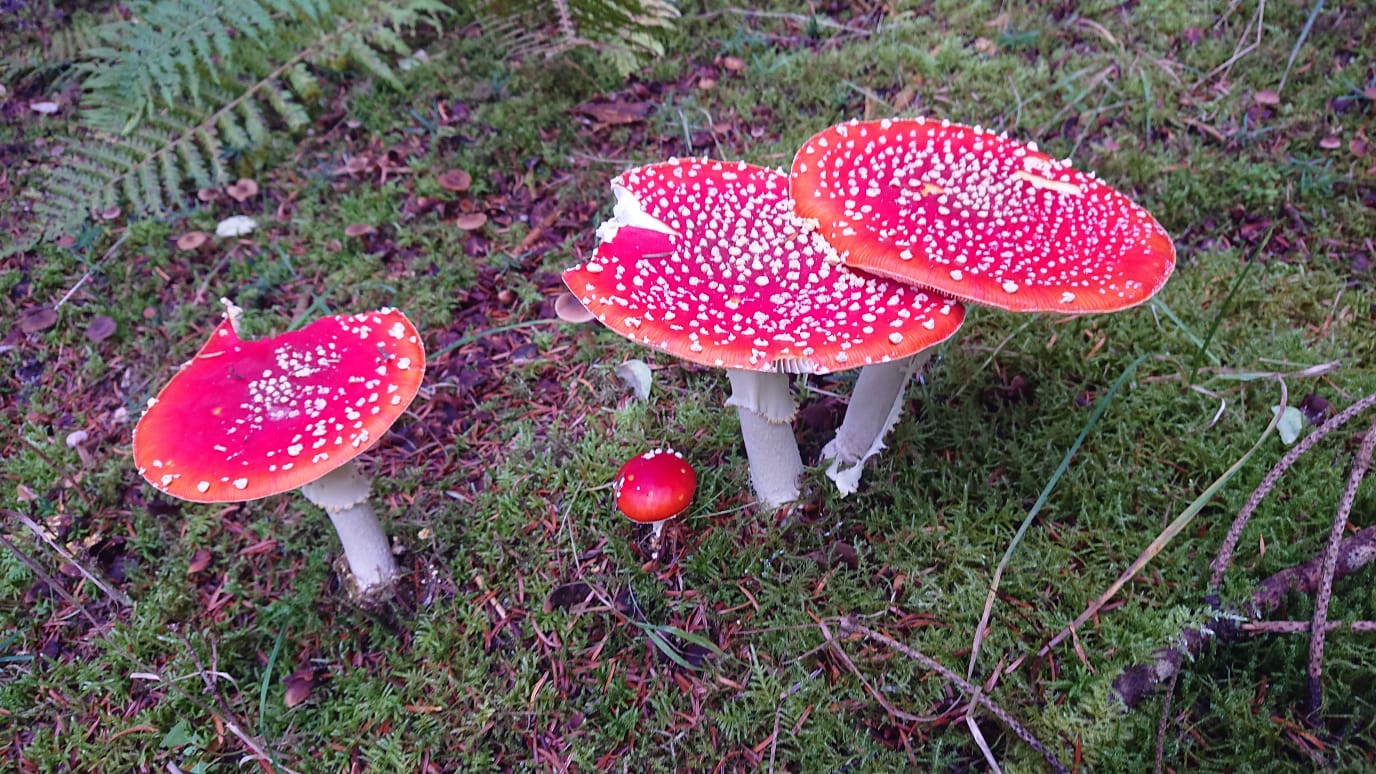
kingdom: Fungi
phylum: Basidiomycota
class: Agaricomycetes
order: Agaricales
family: Amanitaceae
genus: Amanita
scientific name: Amanita muscaria
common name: rød fluesvamp
